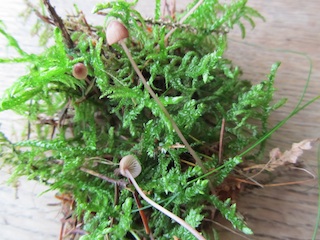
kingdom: Fungi
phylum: Basidiomycota
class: Agaricomycetes
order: Agaricales
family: Mycenaceae
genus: Mycena
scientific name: Mycena sanguinolenta
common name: rødmælket huesvamp
